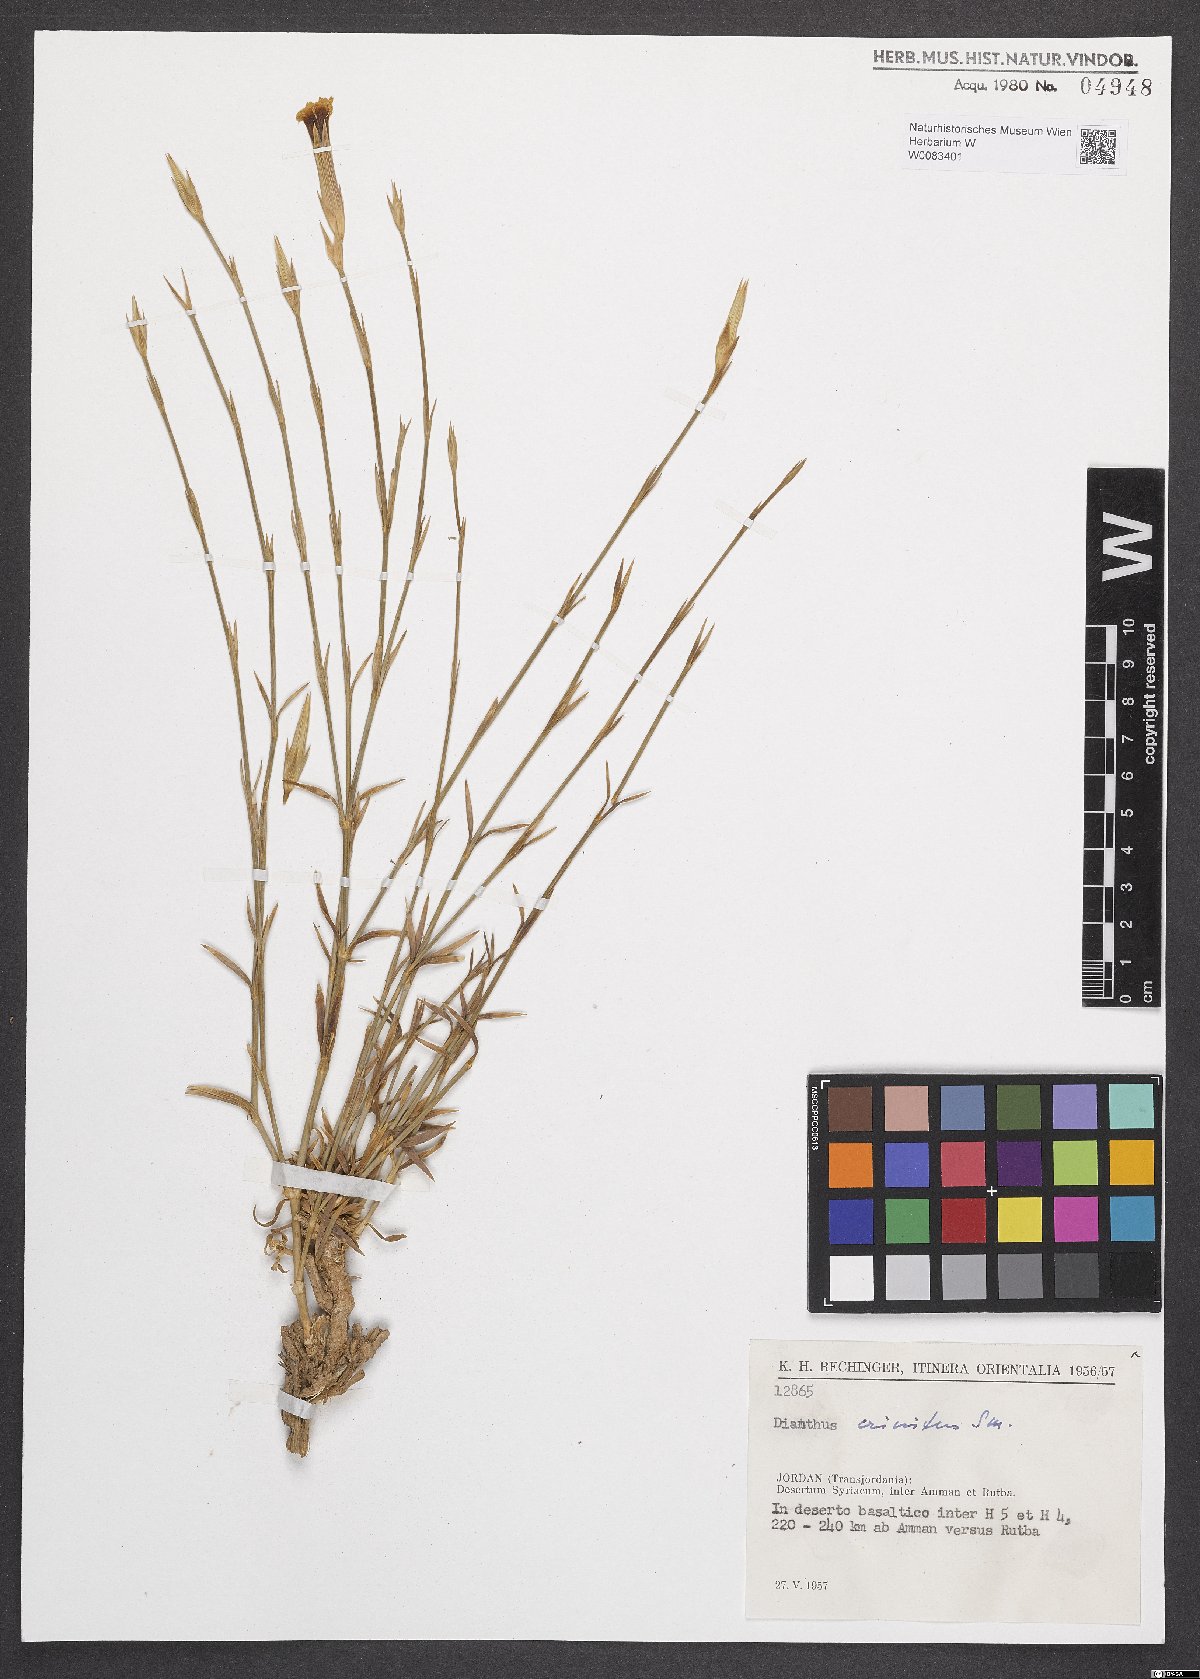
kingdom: Plantae
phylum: Tracheophyta
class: Magnoliopsida
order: Caryophyllales
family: Caryophyllaceae
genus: Dianthus
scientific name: Dianthus crinitus
